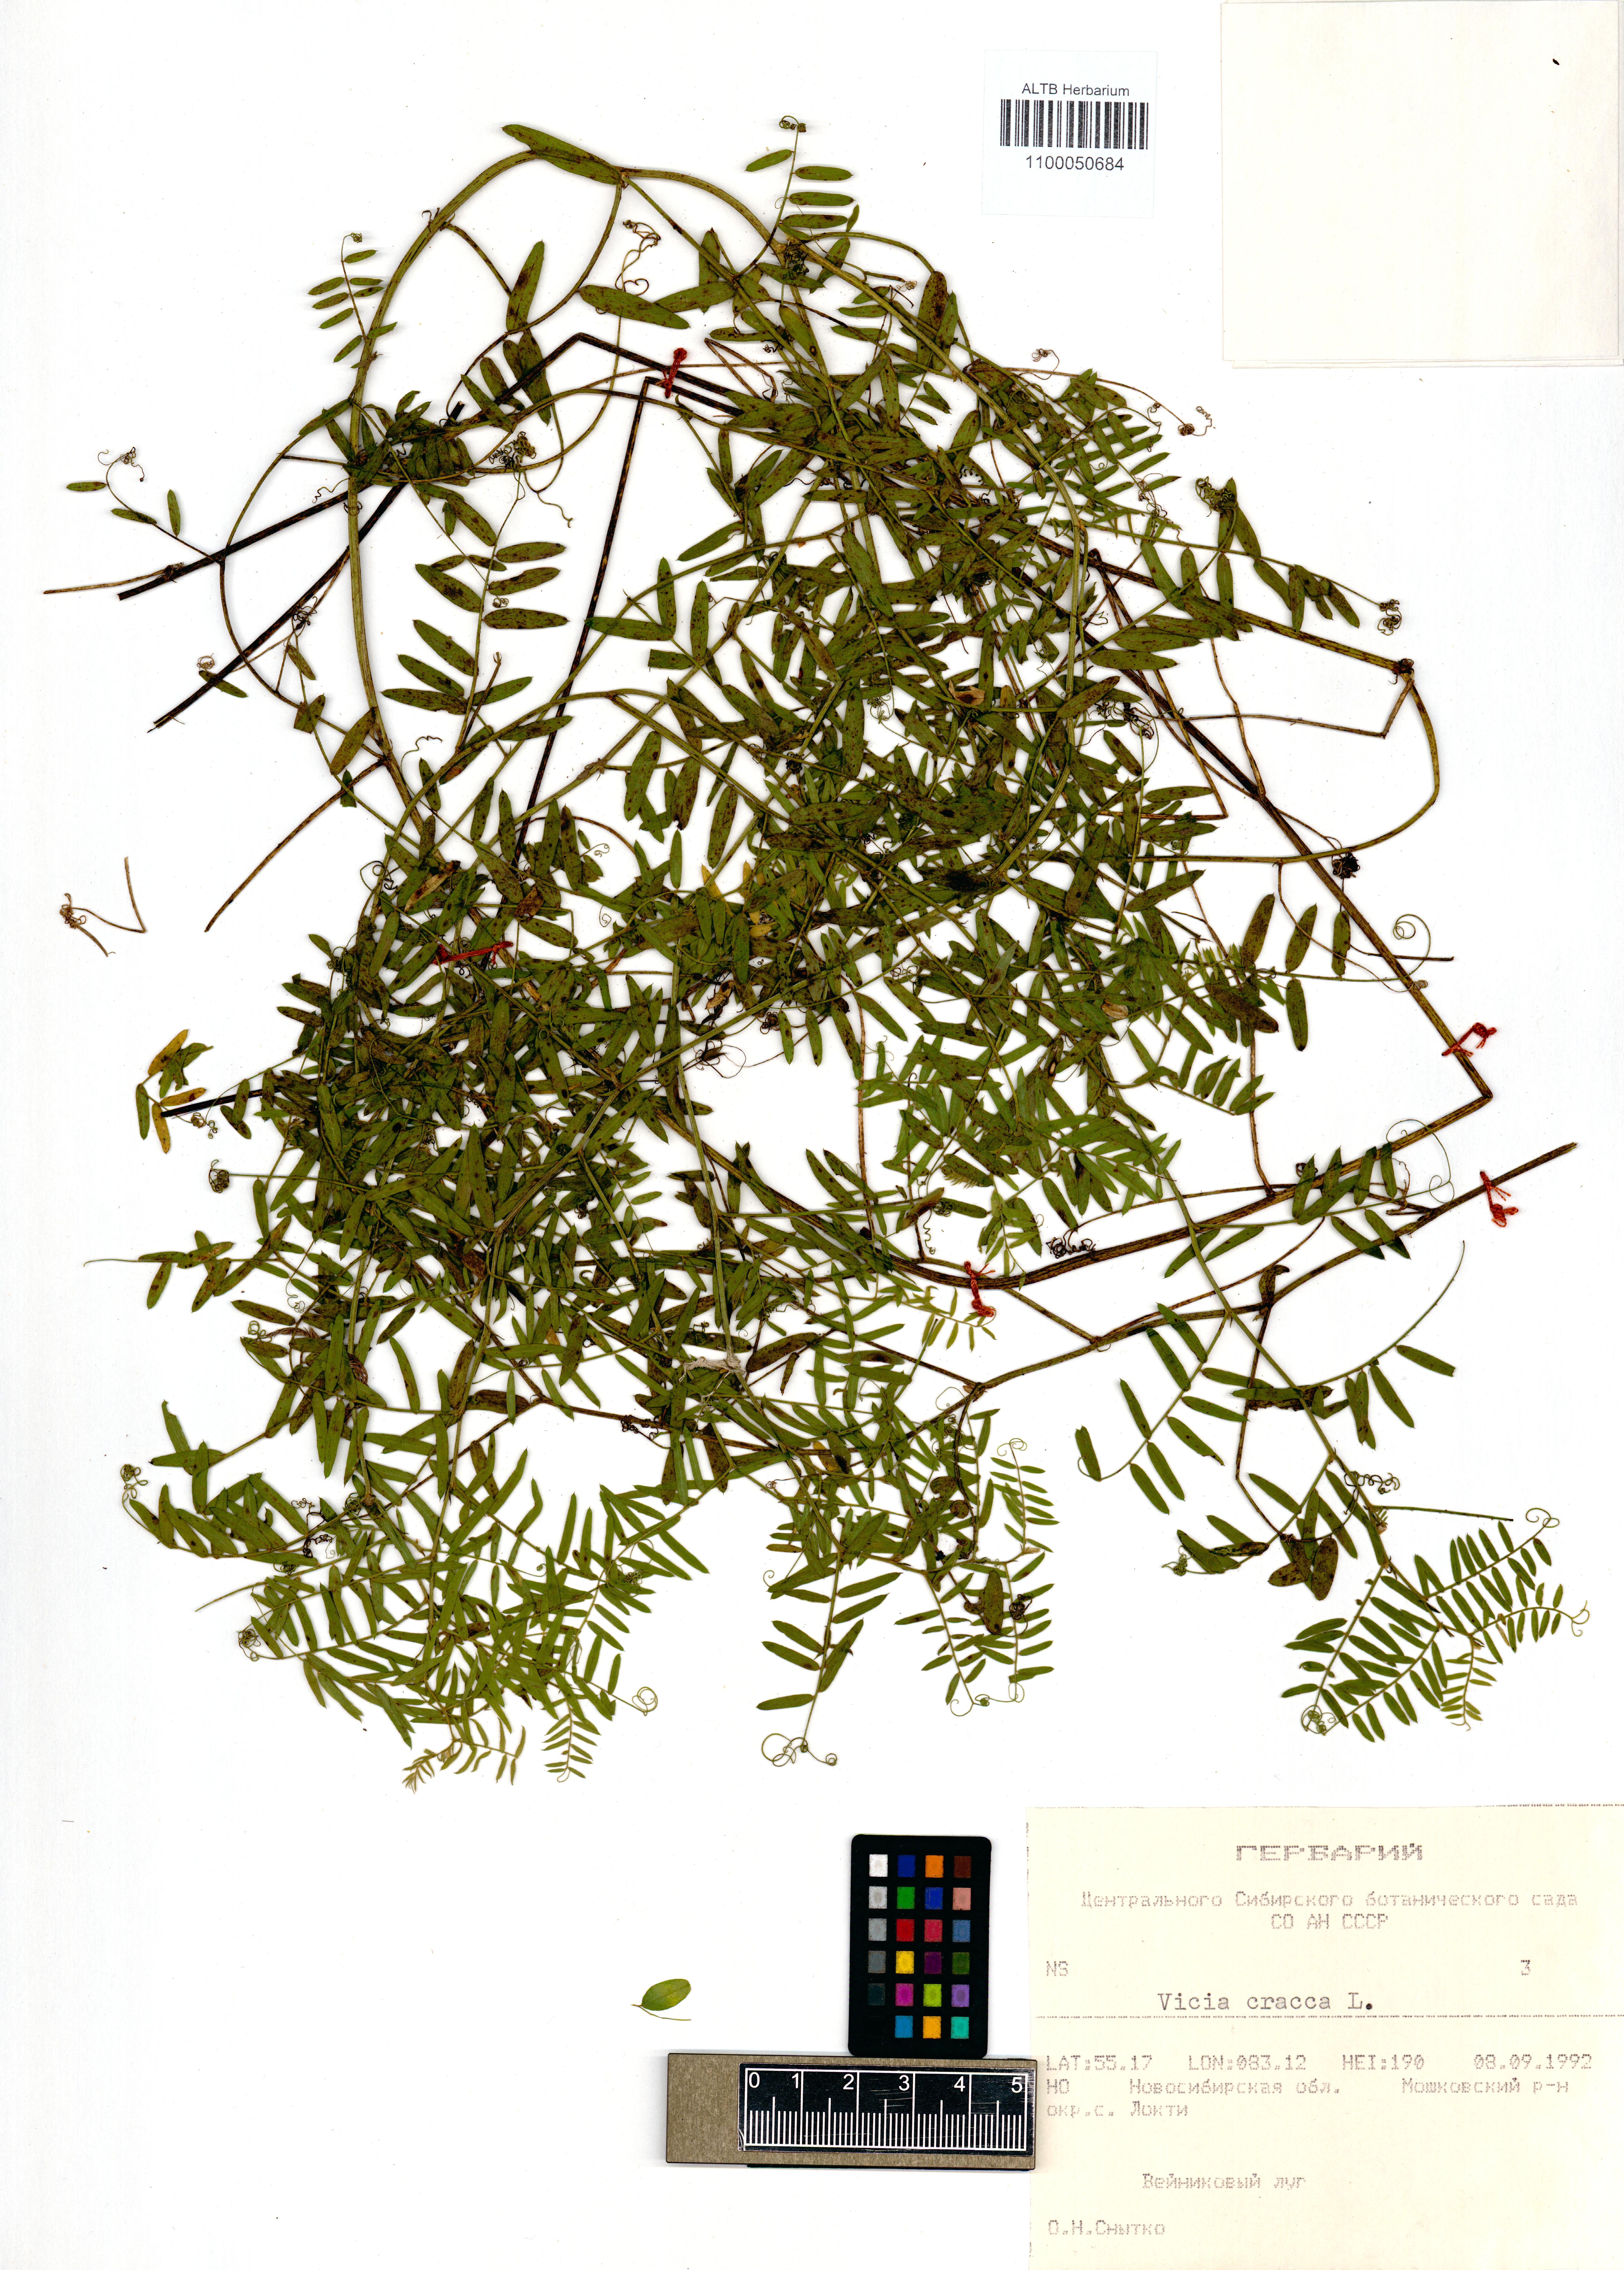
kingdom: Plantae
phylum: Tracheophyta
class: Magnoliopsida
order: Fabales
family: Fabaceae
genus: Vicia
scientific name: Vicia cracca
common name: Bird vetch
